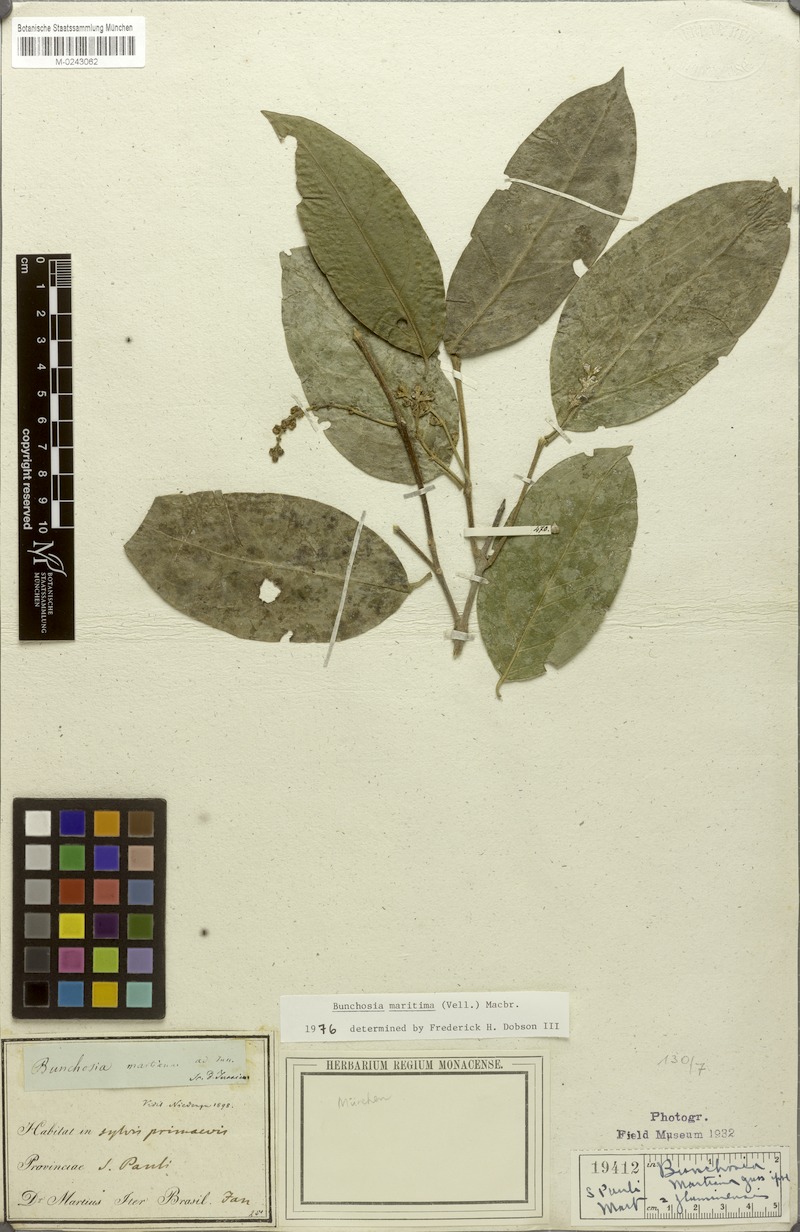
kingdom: Plantae
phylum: Tracheophyta
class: Magnoliopsida
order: Malpighiales
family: Malpighiaceae
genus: Bunchosia
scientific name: Bunchosia maritima
